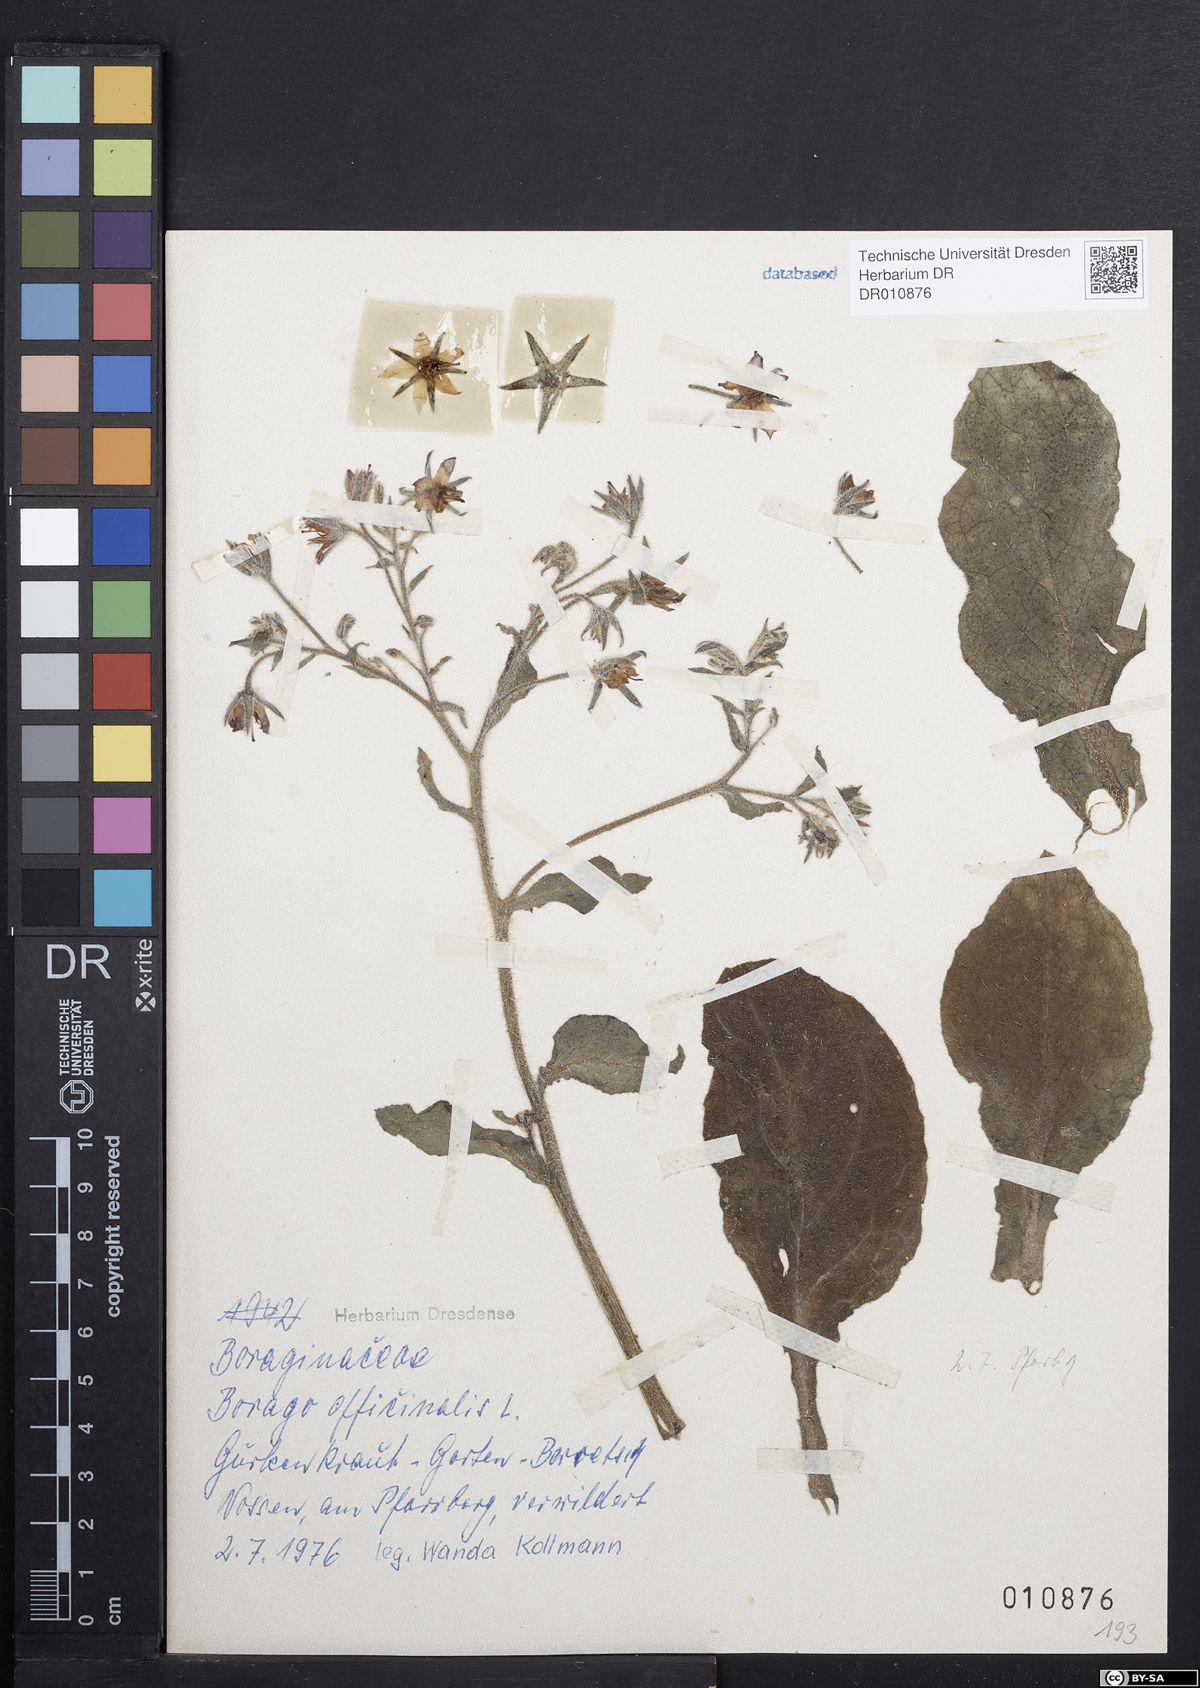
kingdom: Plantae
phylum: Tracheophyta
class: Magnoliopsida
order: Boraginales
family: Boraginaceae
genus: Borago
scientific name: Borago officinalis
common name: Borage
